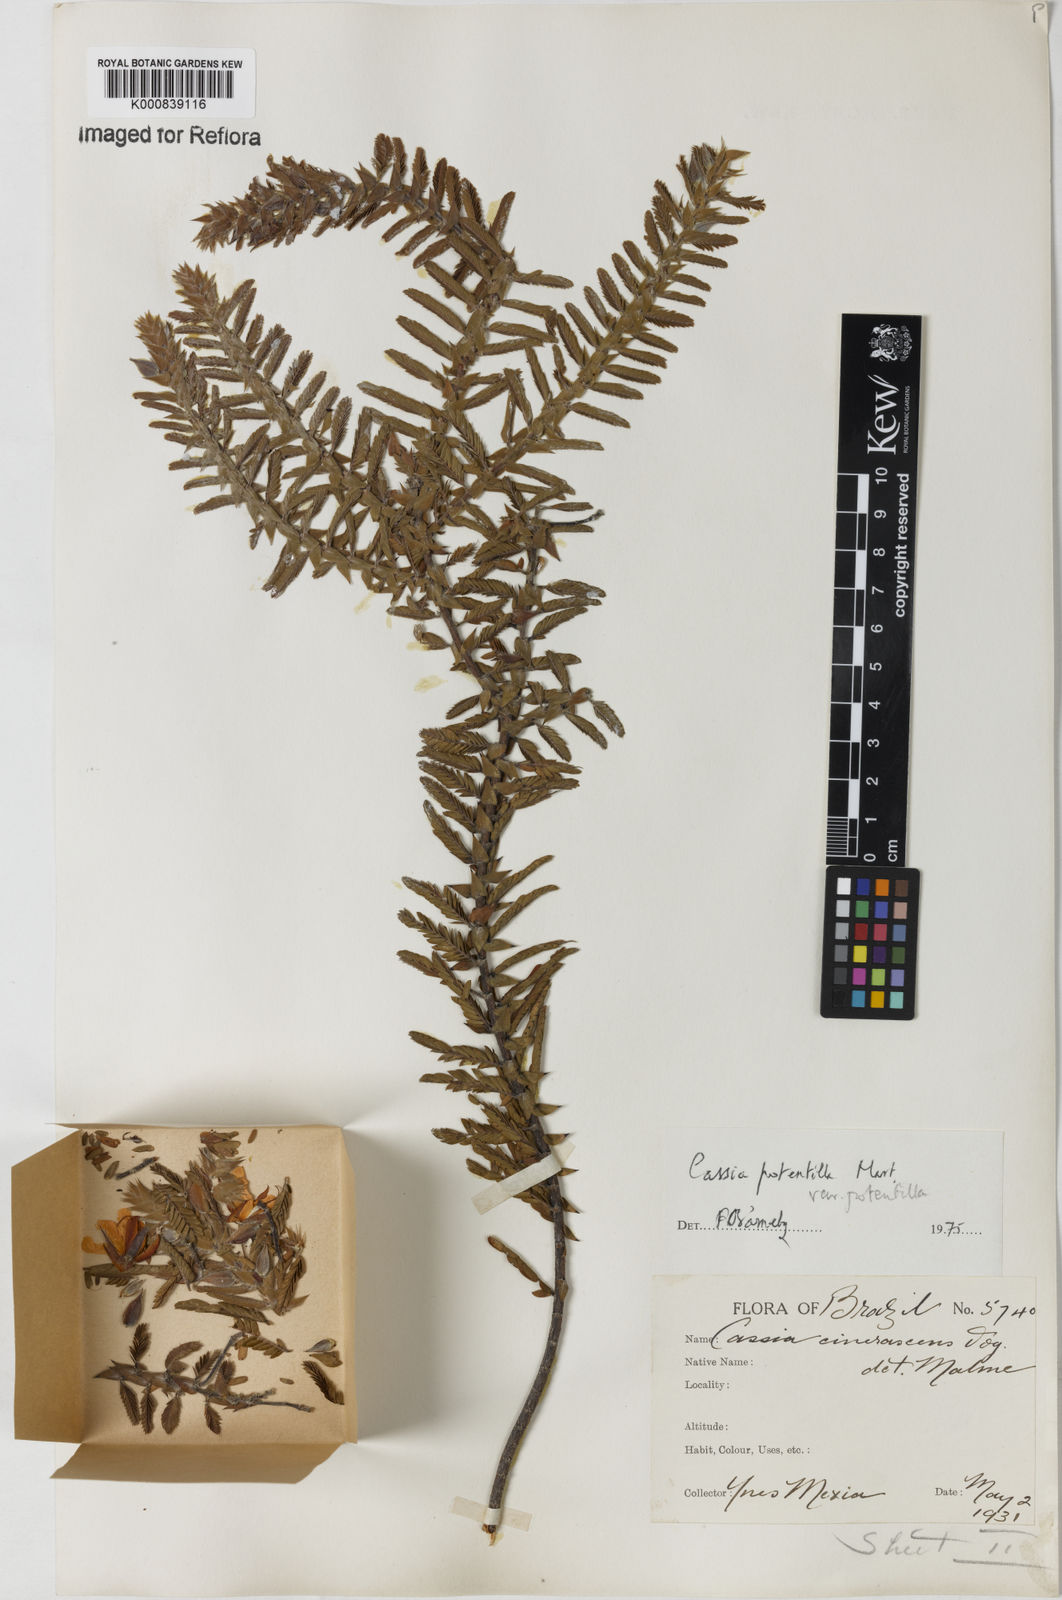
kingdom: Plantae
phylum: Tracheophyta
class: Magnoliopsida
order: Fabales
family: Fabaceae
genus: Chamaecrista
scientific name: Chamaecrista potentilla
